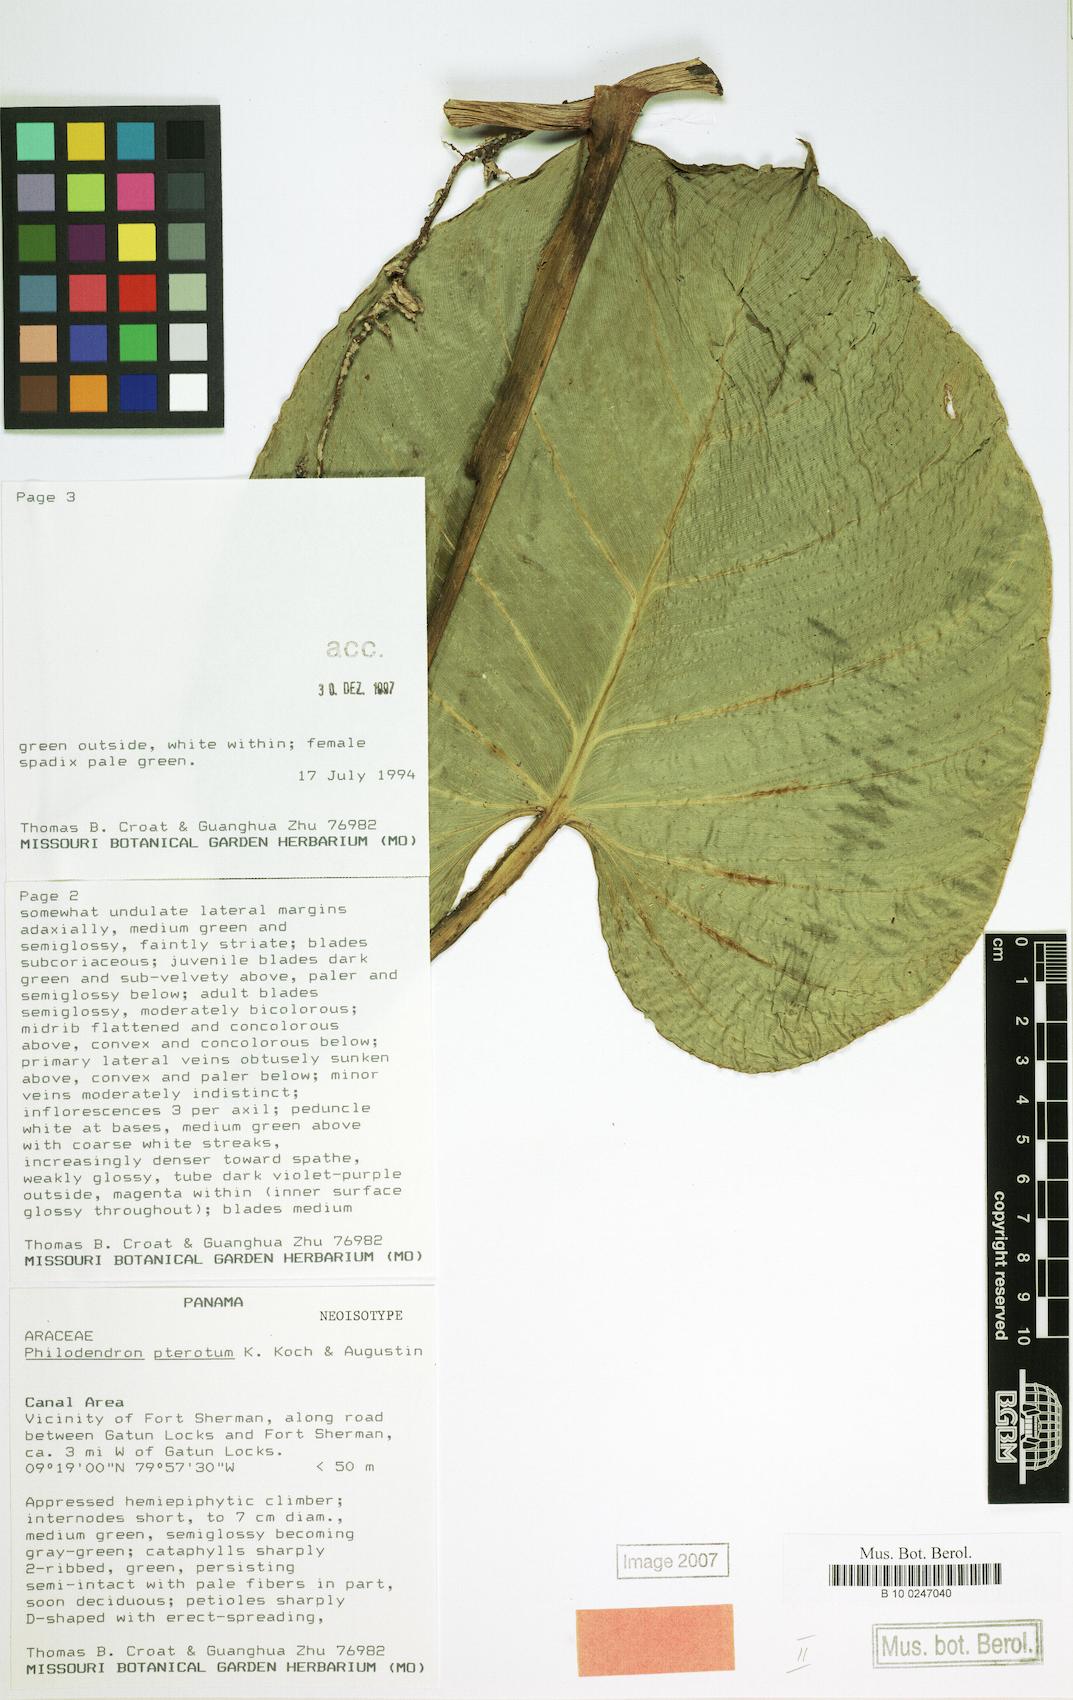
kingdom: Plantae
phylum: Tracheophyta
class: Liliopsida
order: Alismatales
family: Araceae
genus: Philodendron
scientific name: Philodendron pterotum
